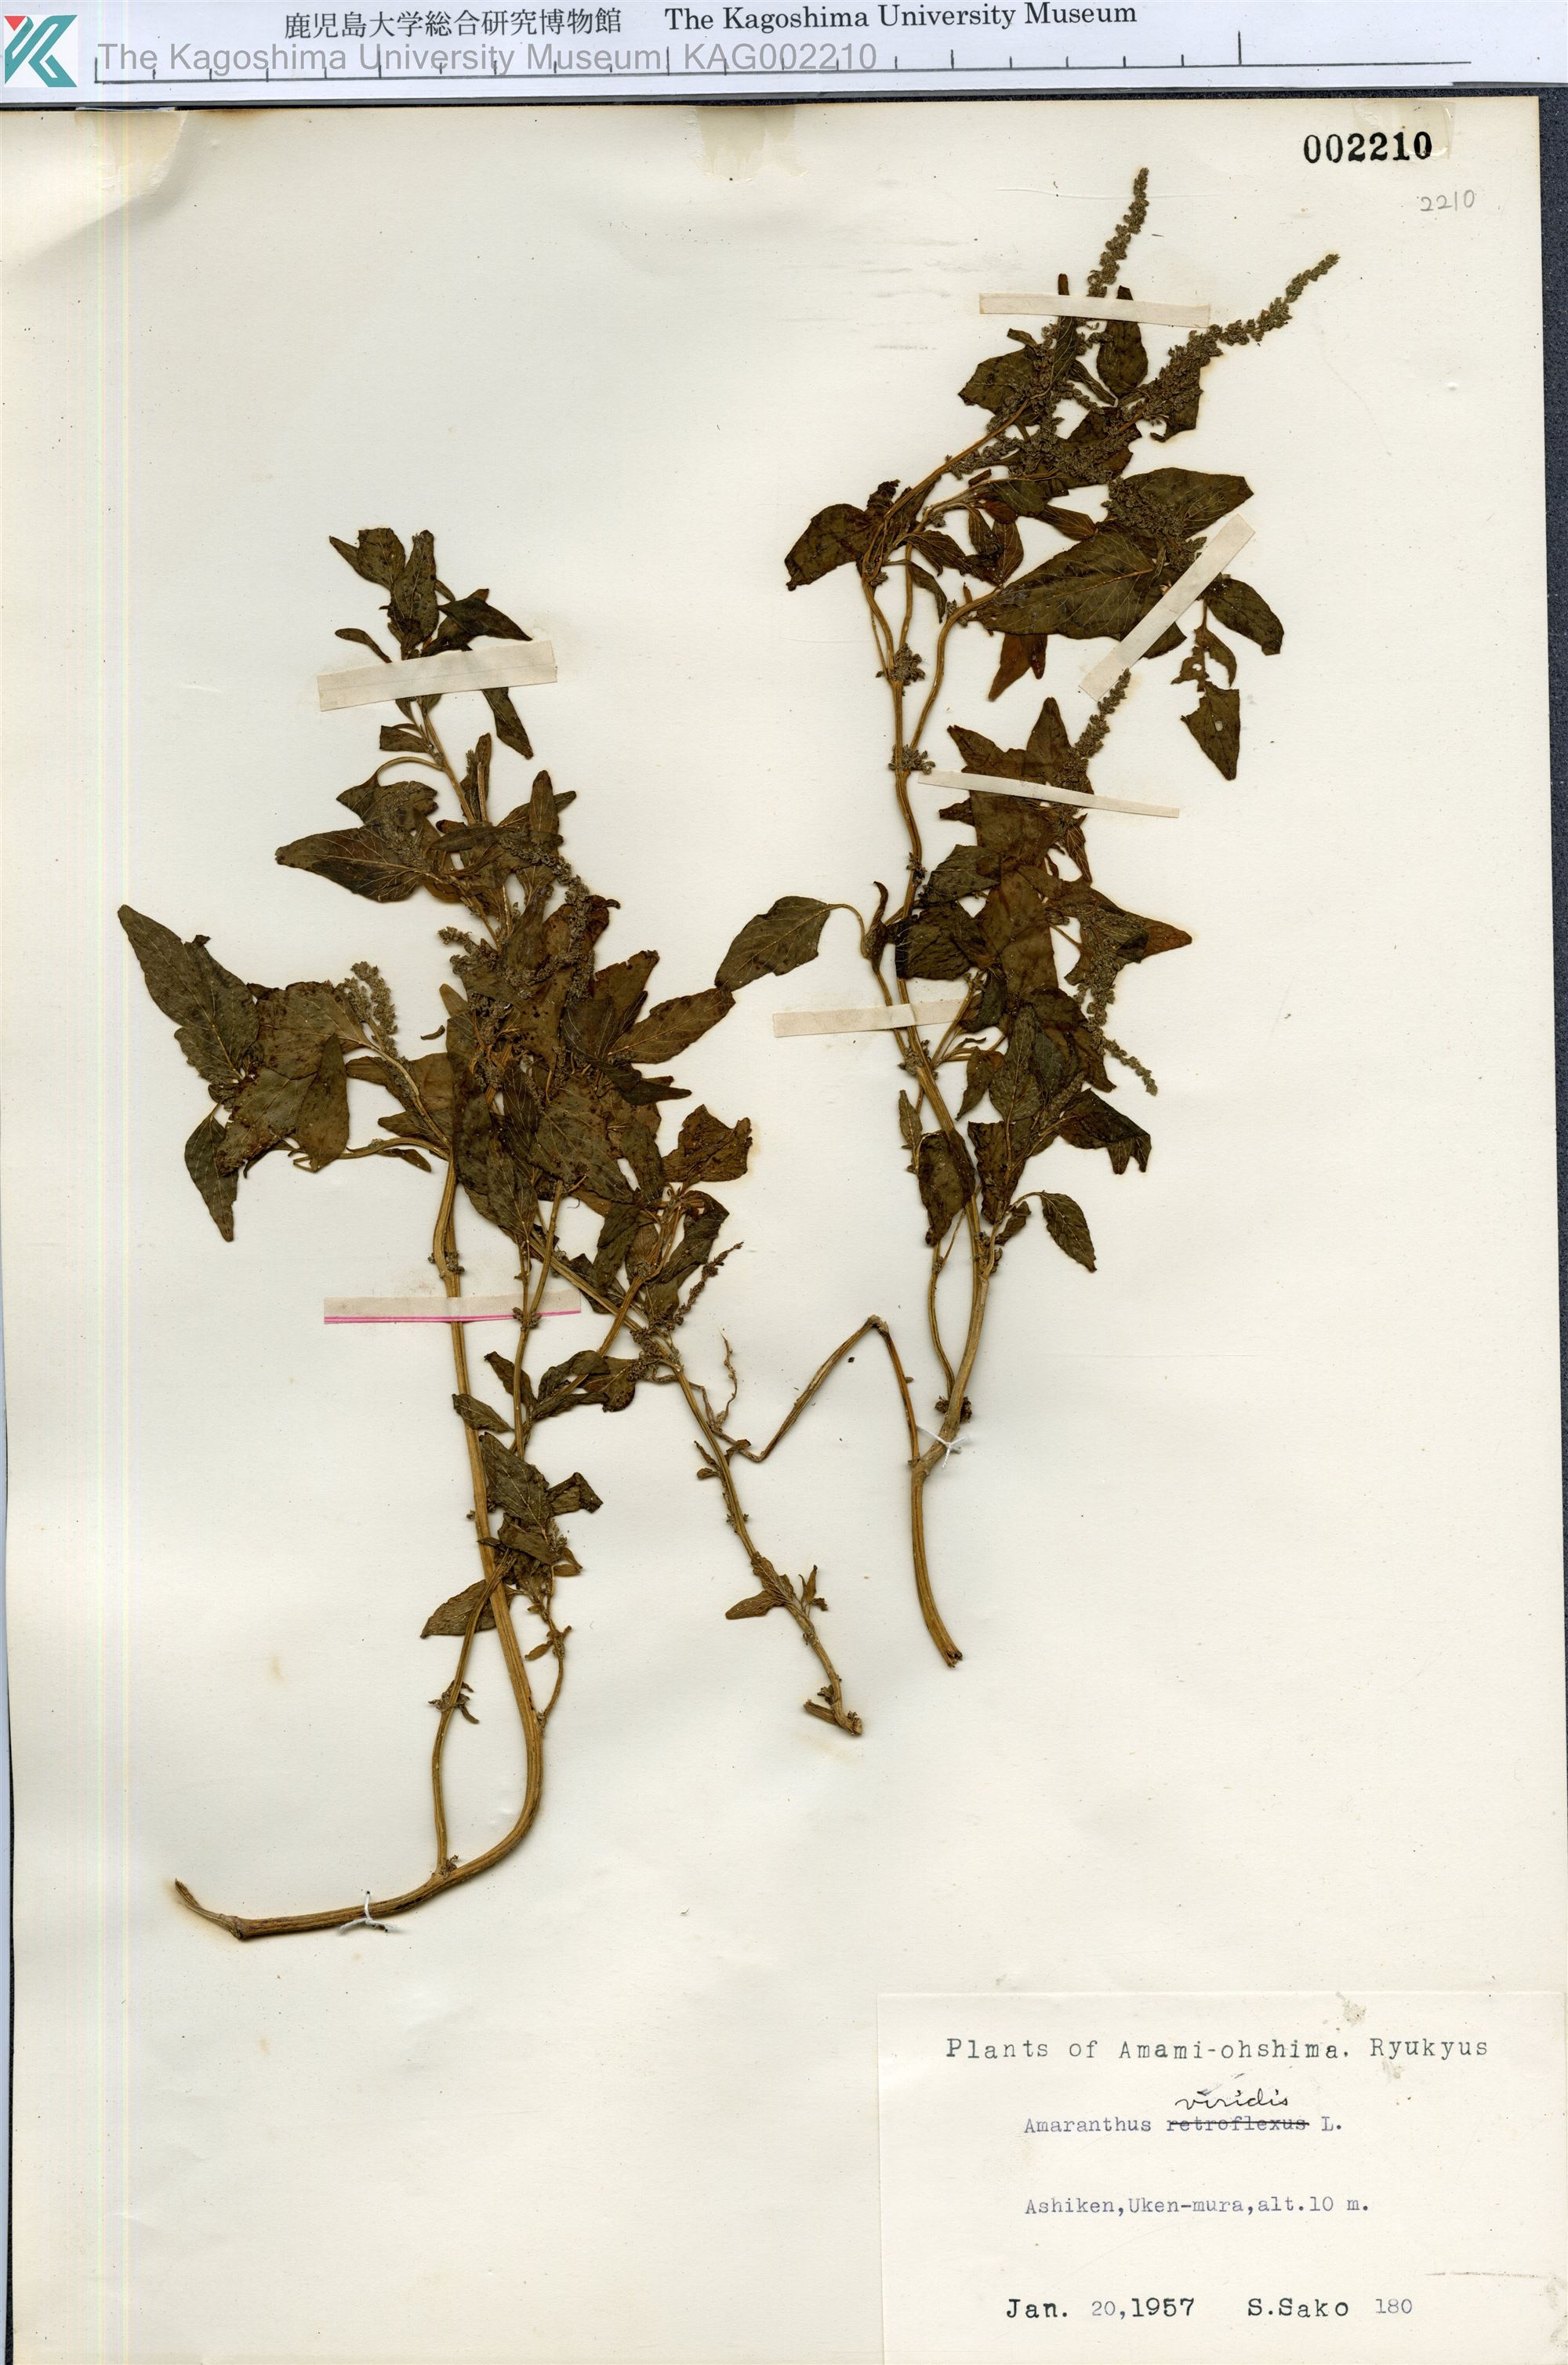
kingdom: Plantae
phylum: Tracheophyta
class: Magnoliopsida
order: Caryophyllales
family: Amaranthaceae
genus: Amaranthus
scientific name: Amaranthus viridis
